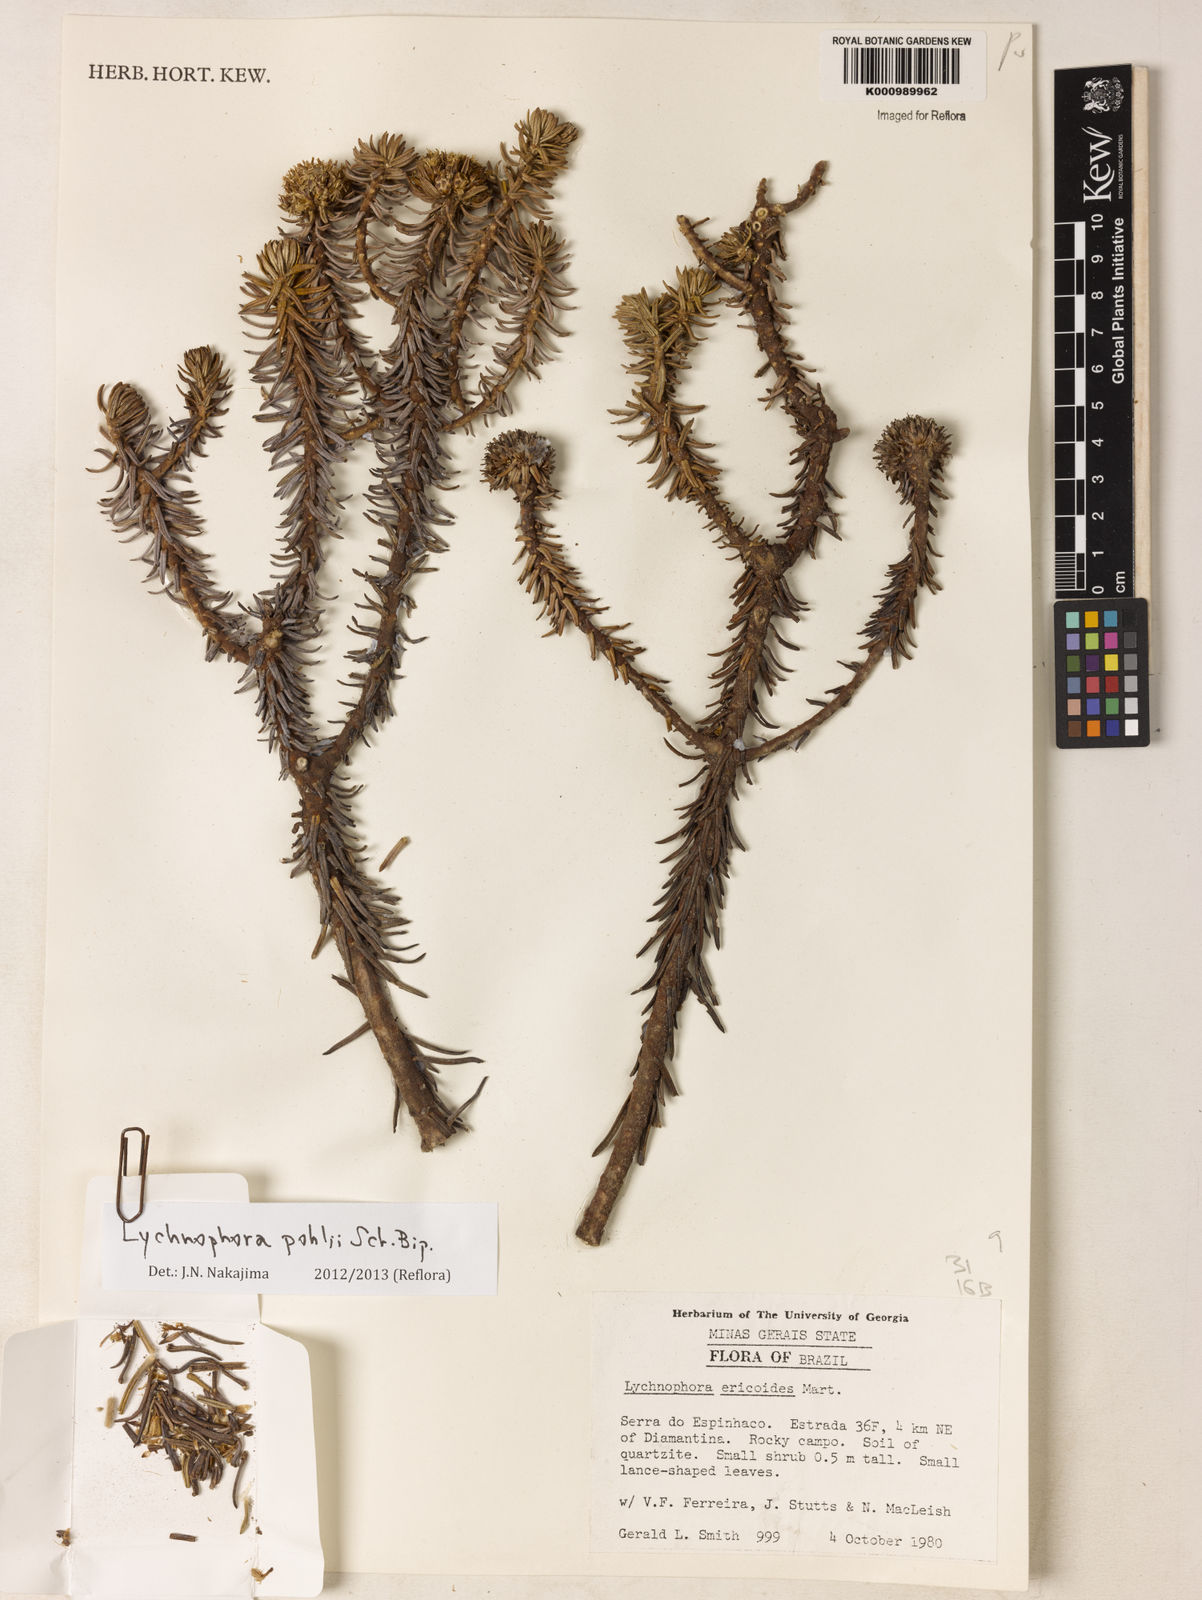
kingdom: Plantae
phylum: Tracheophyta
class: Magnoliopsida
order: Asterales
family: Asteraceae
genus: Lychnophora
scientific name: Lychnophora pohlii
